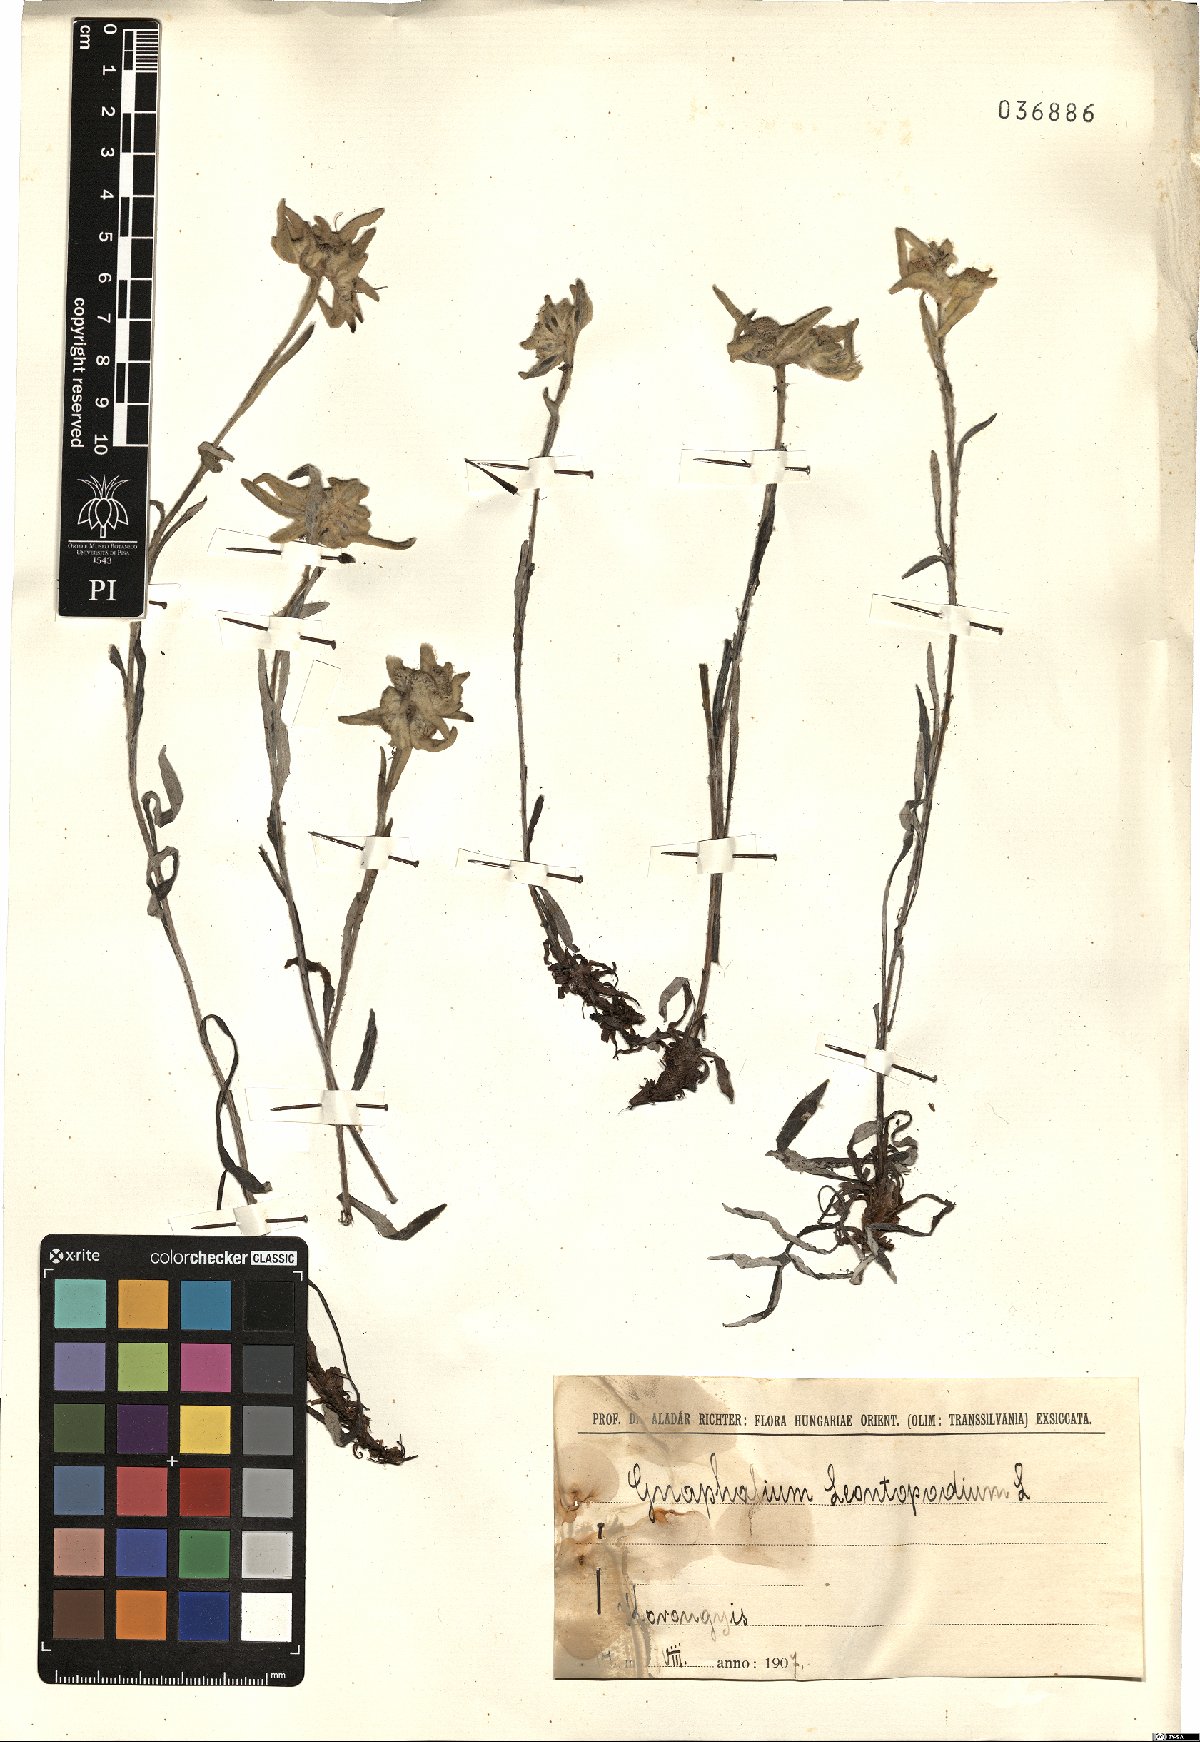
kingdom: Plantae
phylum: Tracheophyta
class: Magnoliopsida
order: Asterales
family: Asteraceae
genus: Leontopodium
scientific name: Leontopodium nivale
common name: Edelweiss
